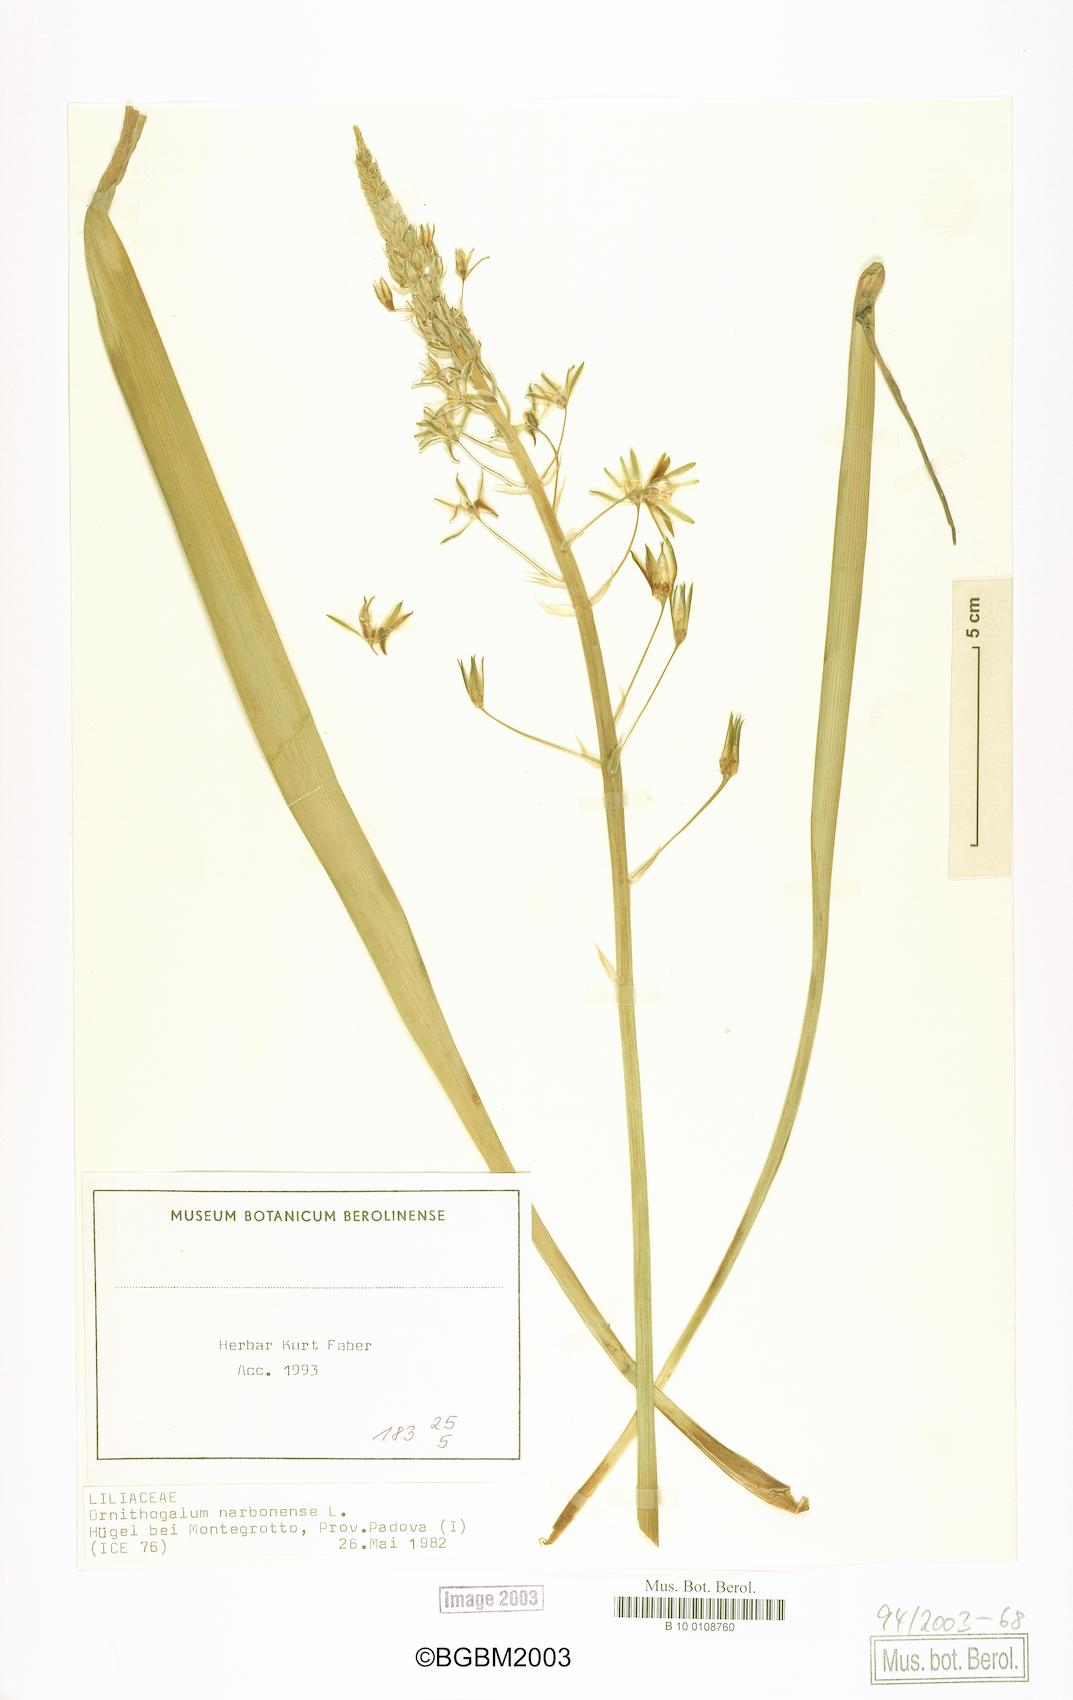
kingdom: Plantae
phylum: Tracheophyta
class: Liliopsida
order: Asparagales
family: Asparagaceae
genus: Ornithogalum
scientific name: Ornithogalum narbonense
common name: Bath-asparagus
